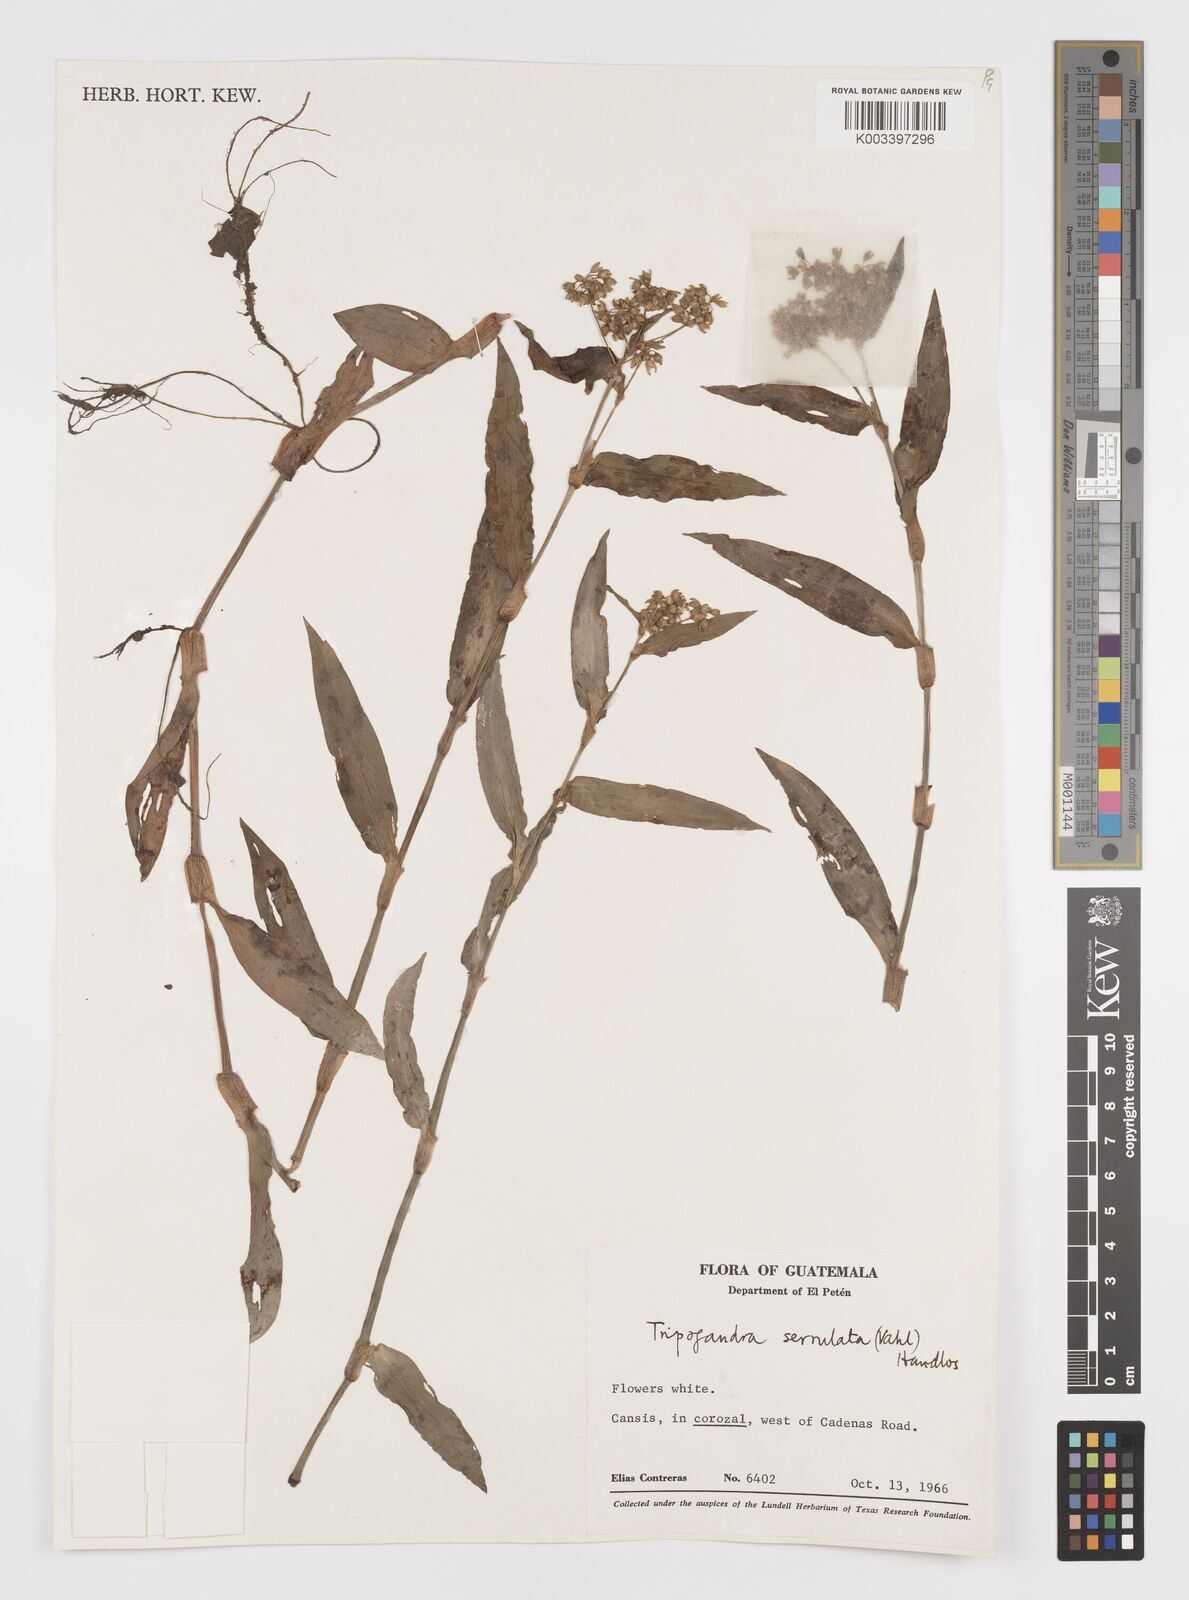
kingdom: Plantae
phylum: Tracheophyta
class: Liliopsida
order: Commelinales
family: Commelinaceae
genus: Callisia
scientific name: Callisia serrulata
